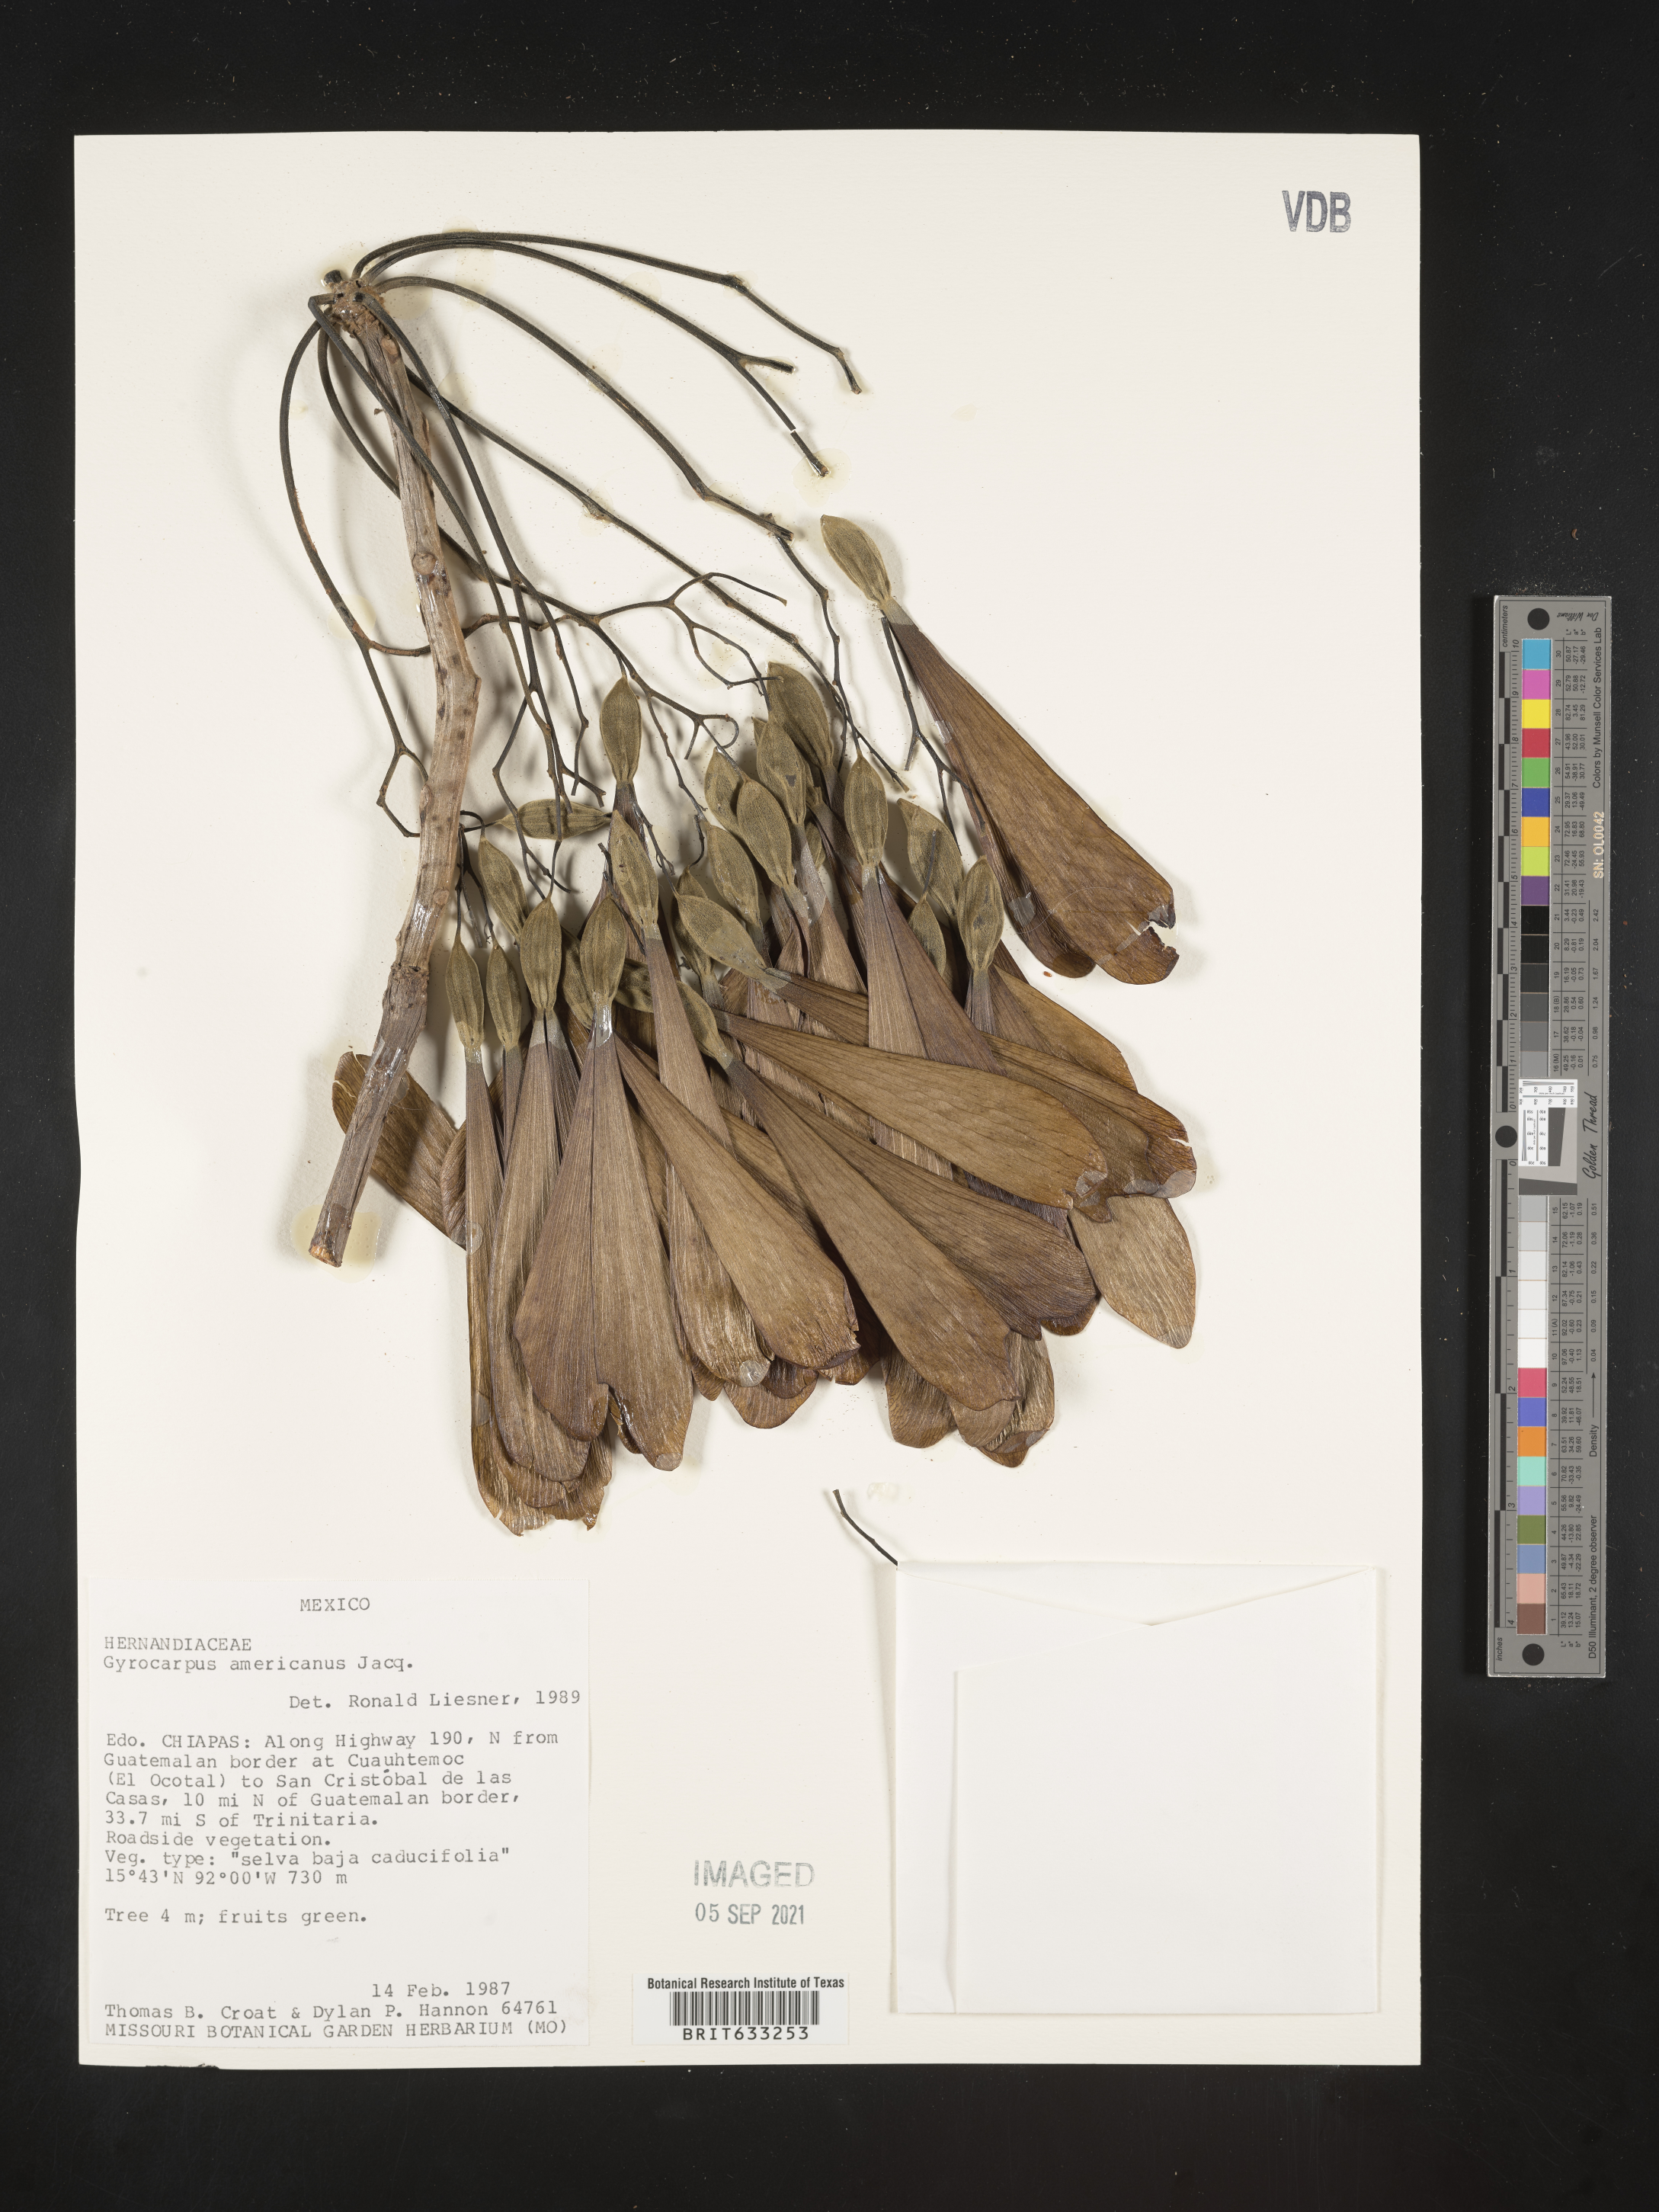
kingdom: Plantae
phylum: Tracheophyta
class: Magnoliopsida
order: Laurales
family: Hernandiaceae
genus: Gyrocarpus
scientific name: Gyrocarpus
